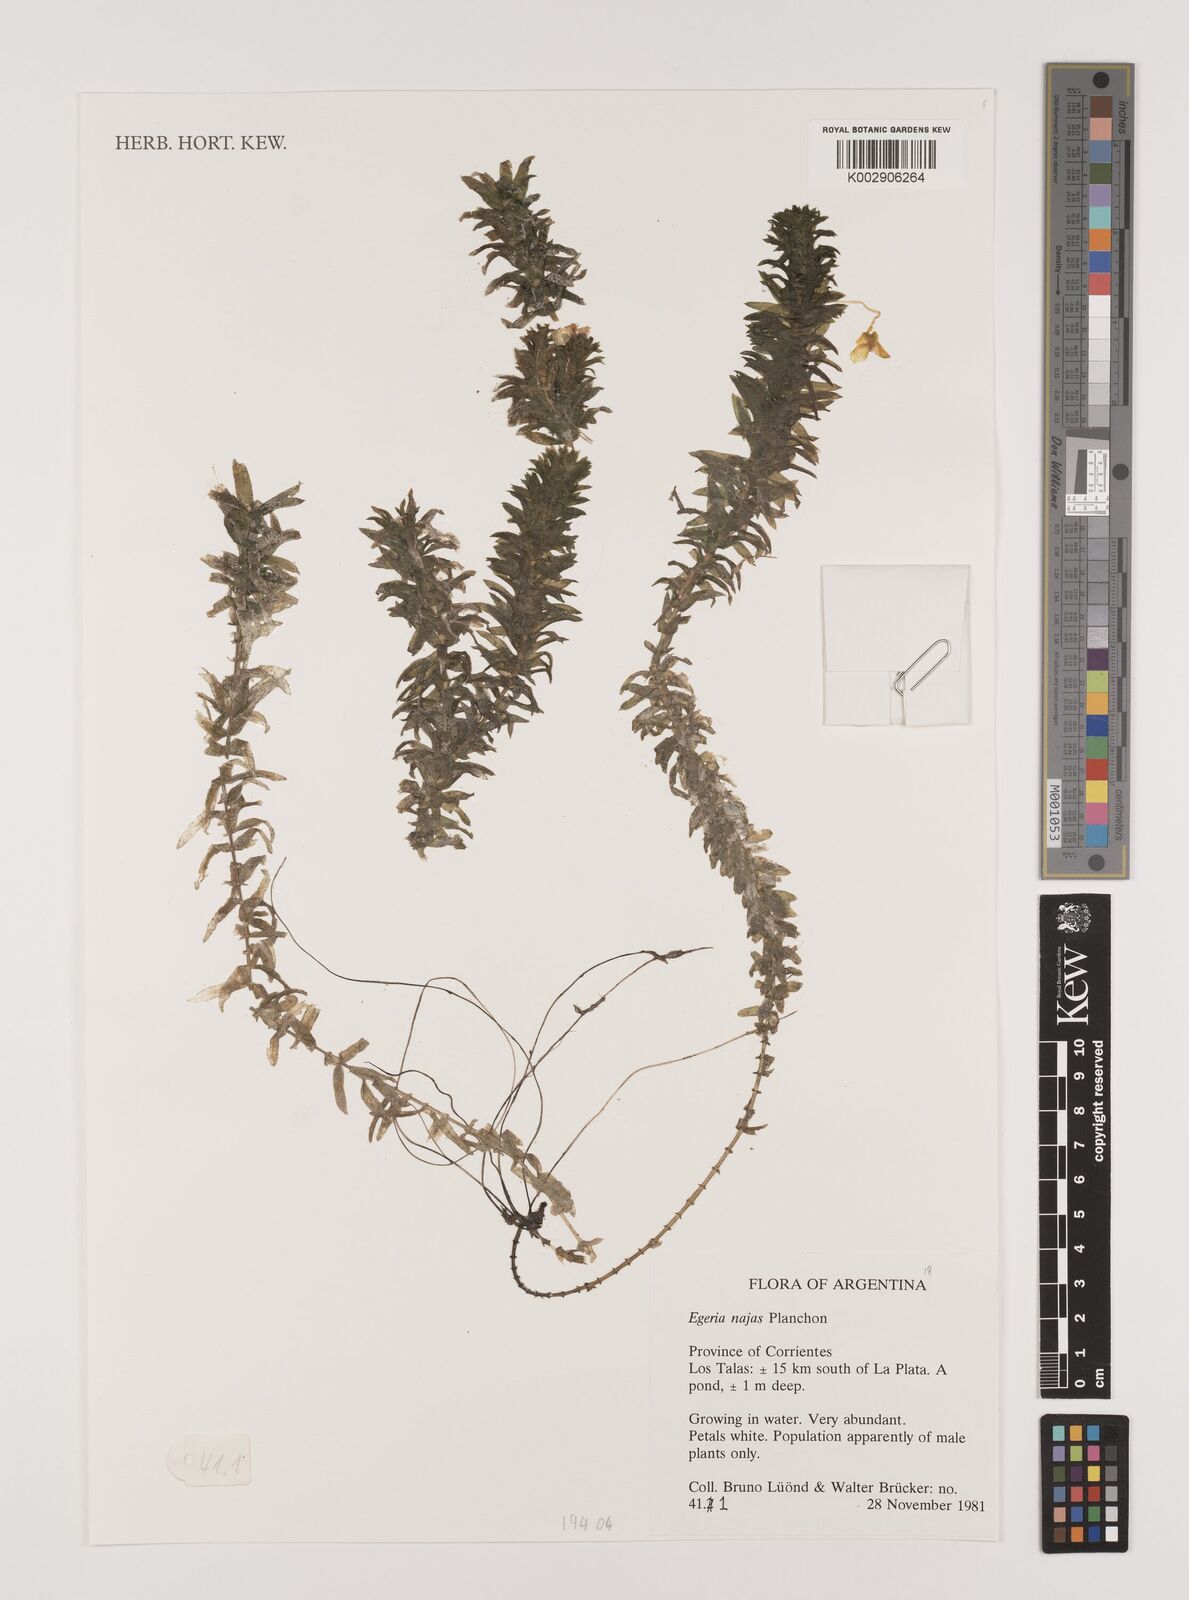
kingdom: Plantae
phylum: Tracheophyta
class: Liliopsida
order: Alismatales
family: Hydrocharitaceae
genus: Elodea
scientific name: Elodea najas
